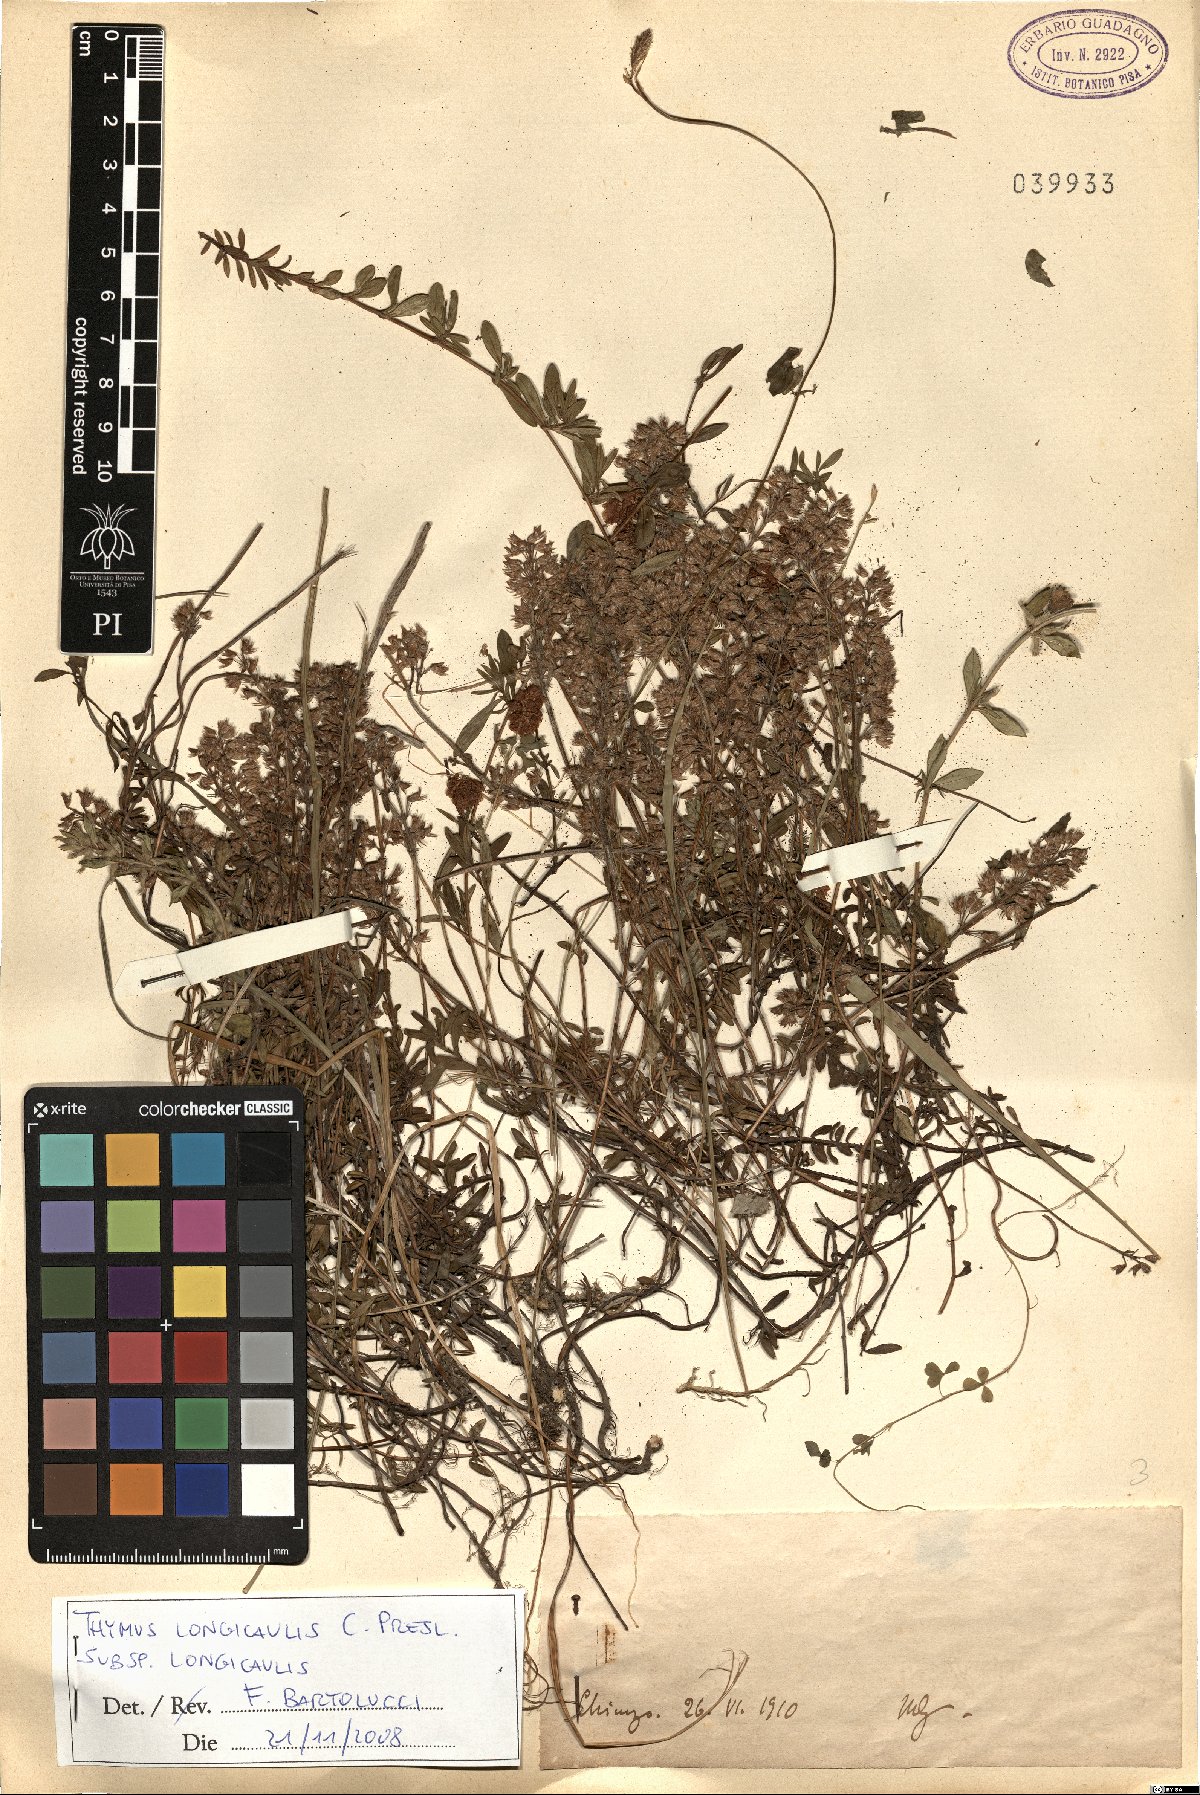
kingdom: Plantae
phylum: Tracheophyta
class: Magnoliopsida
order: Lamiales
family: Lamiaceae
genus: Thymus
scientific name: Thymus longicaulis
